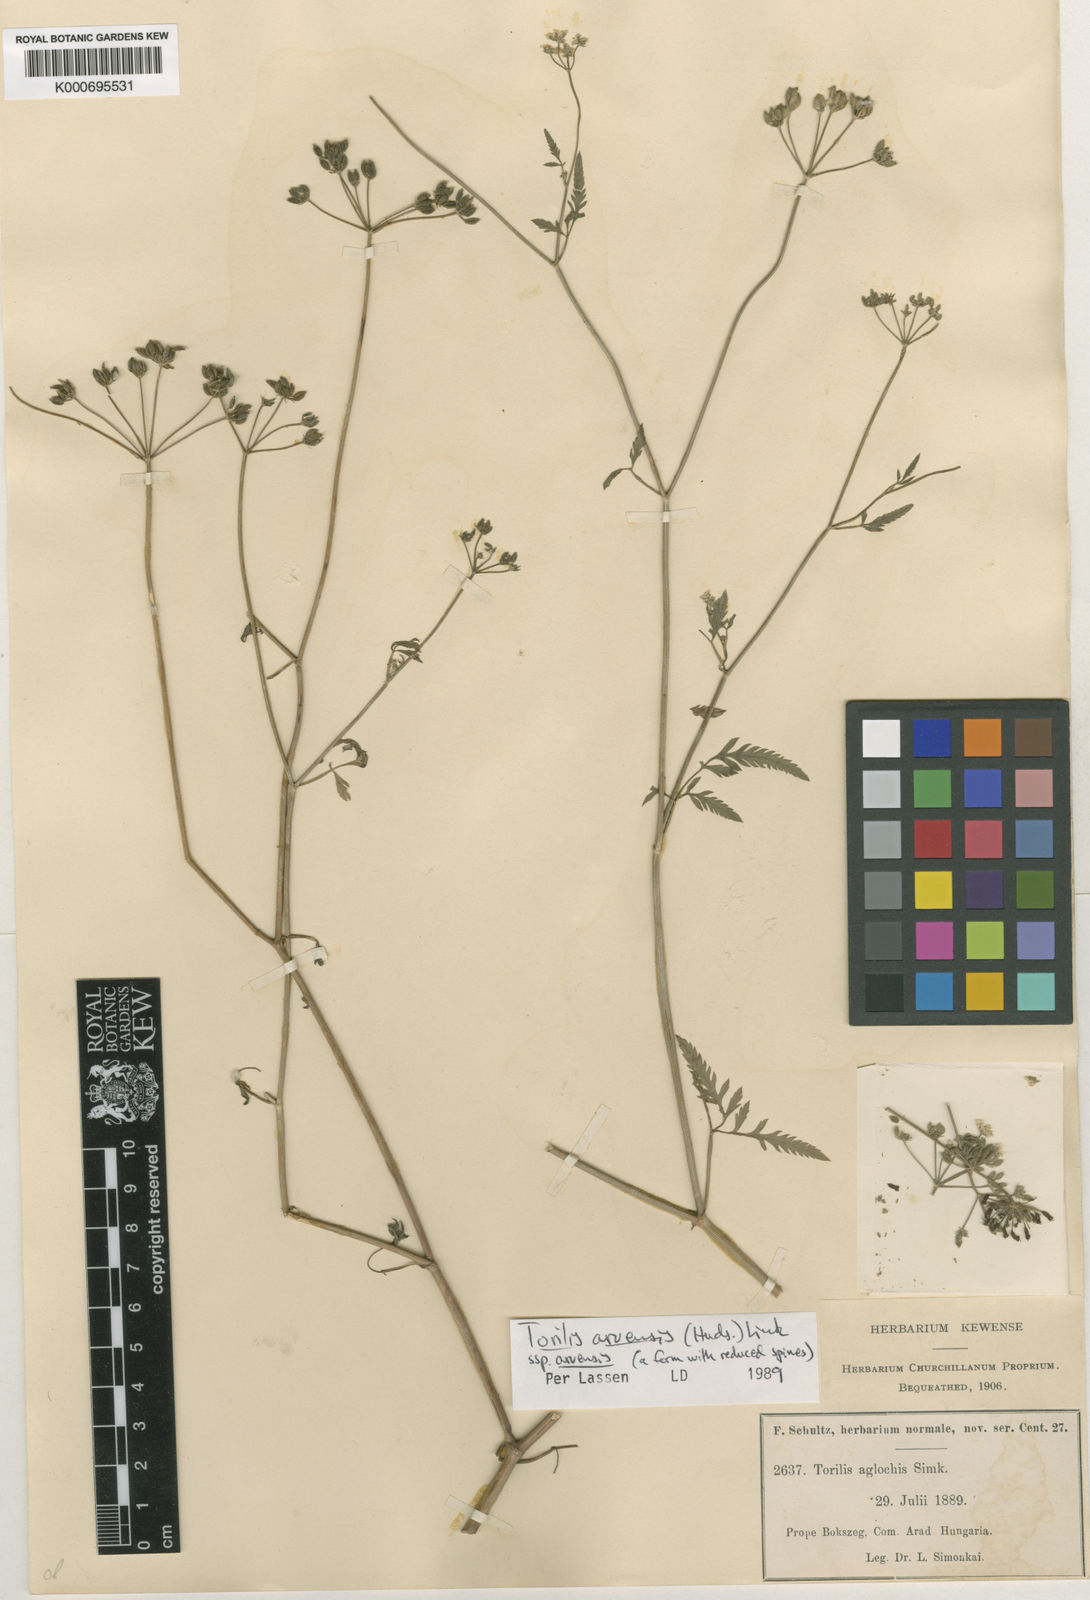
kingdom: Plantae
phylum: Tracheophyta
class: Magnoliopsida
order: Apiales
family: Apiaceae
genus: Torilis
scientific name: Torilis arvensis
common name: Spreading hedge-parsley
